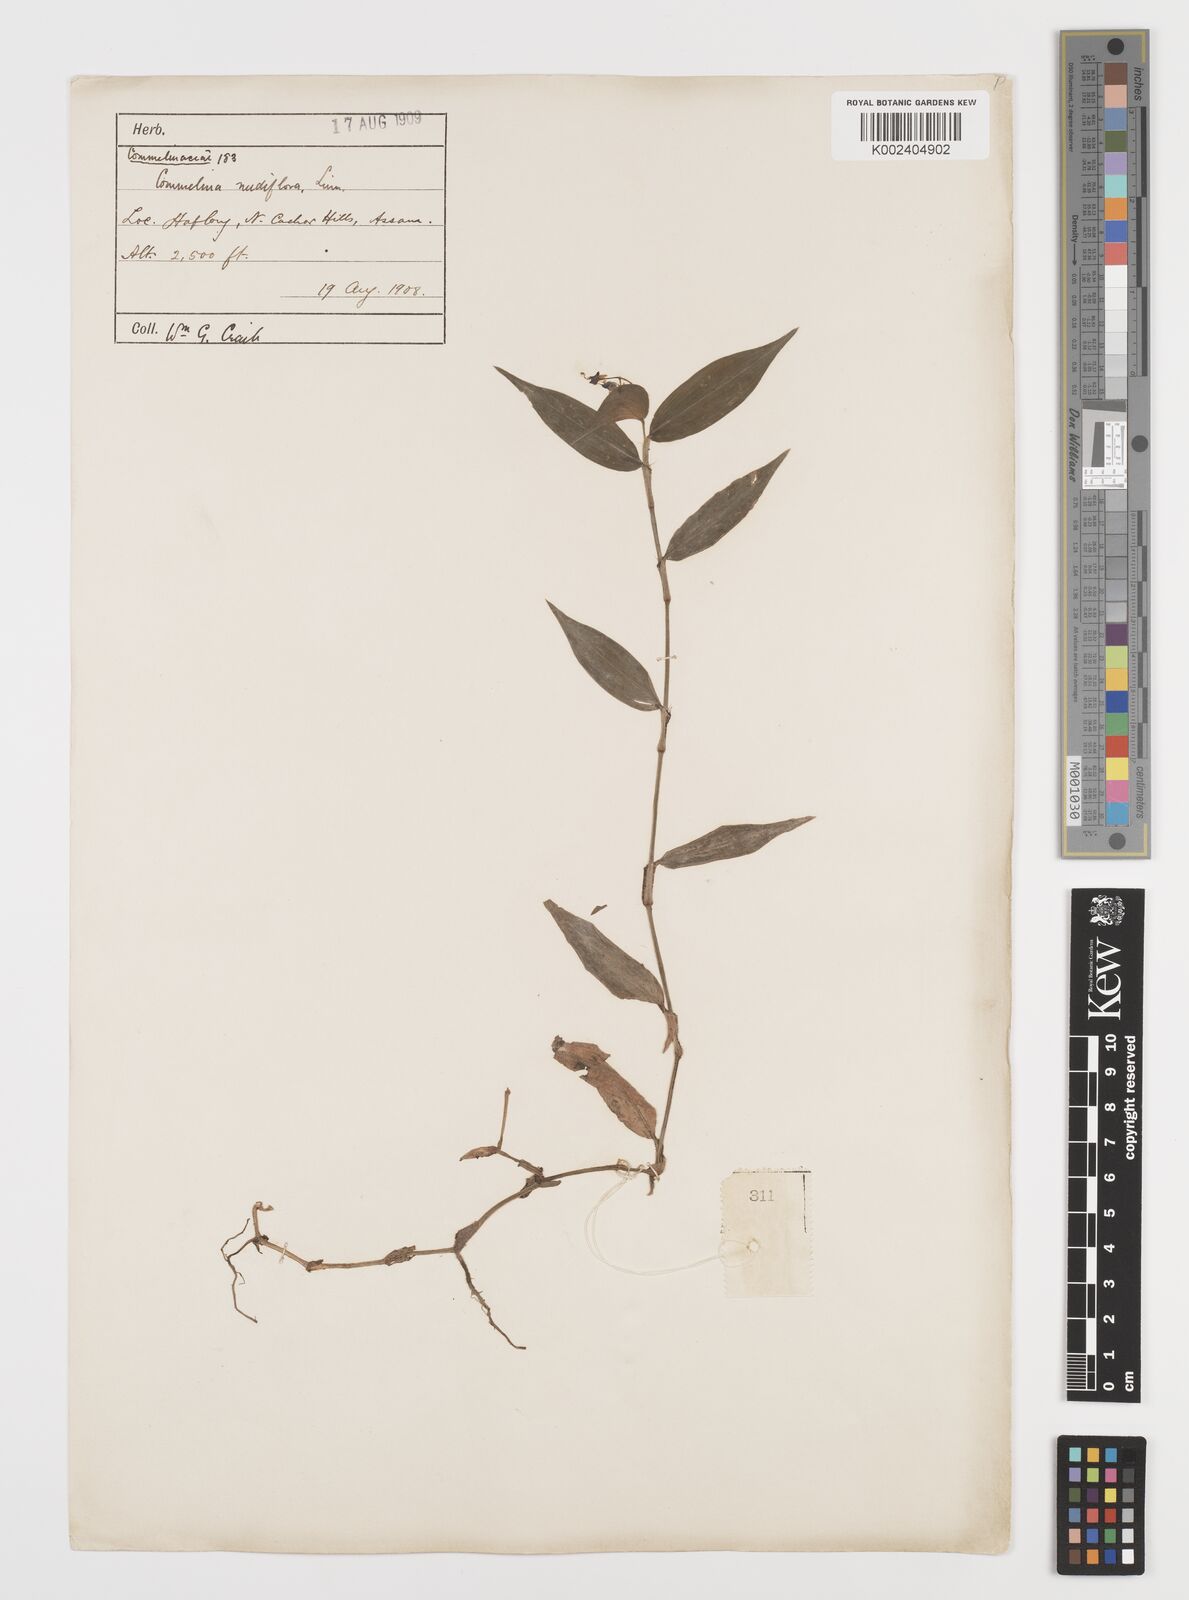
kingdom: Plantae
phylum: Tracheophyta
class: Liliopsida
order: Commelinales
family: Commelinaceae
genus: Commelina
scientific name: Commelina diffusa
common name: Climbing dayflower
